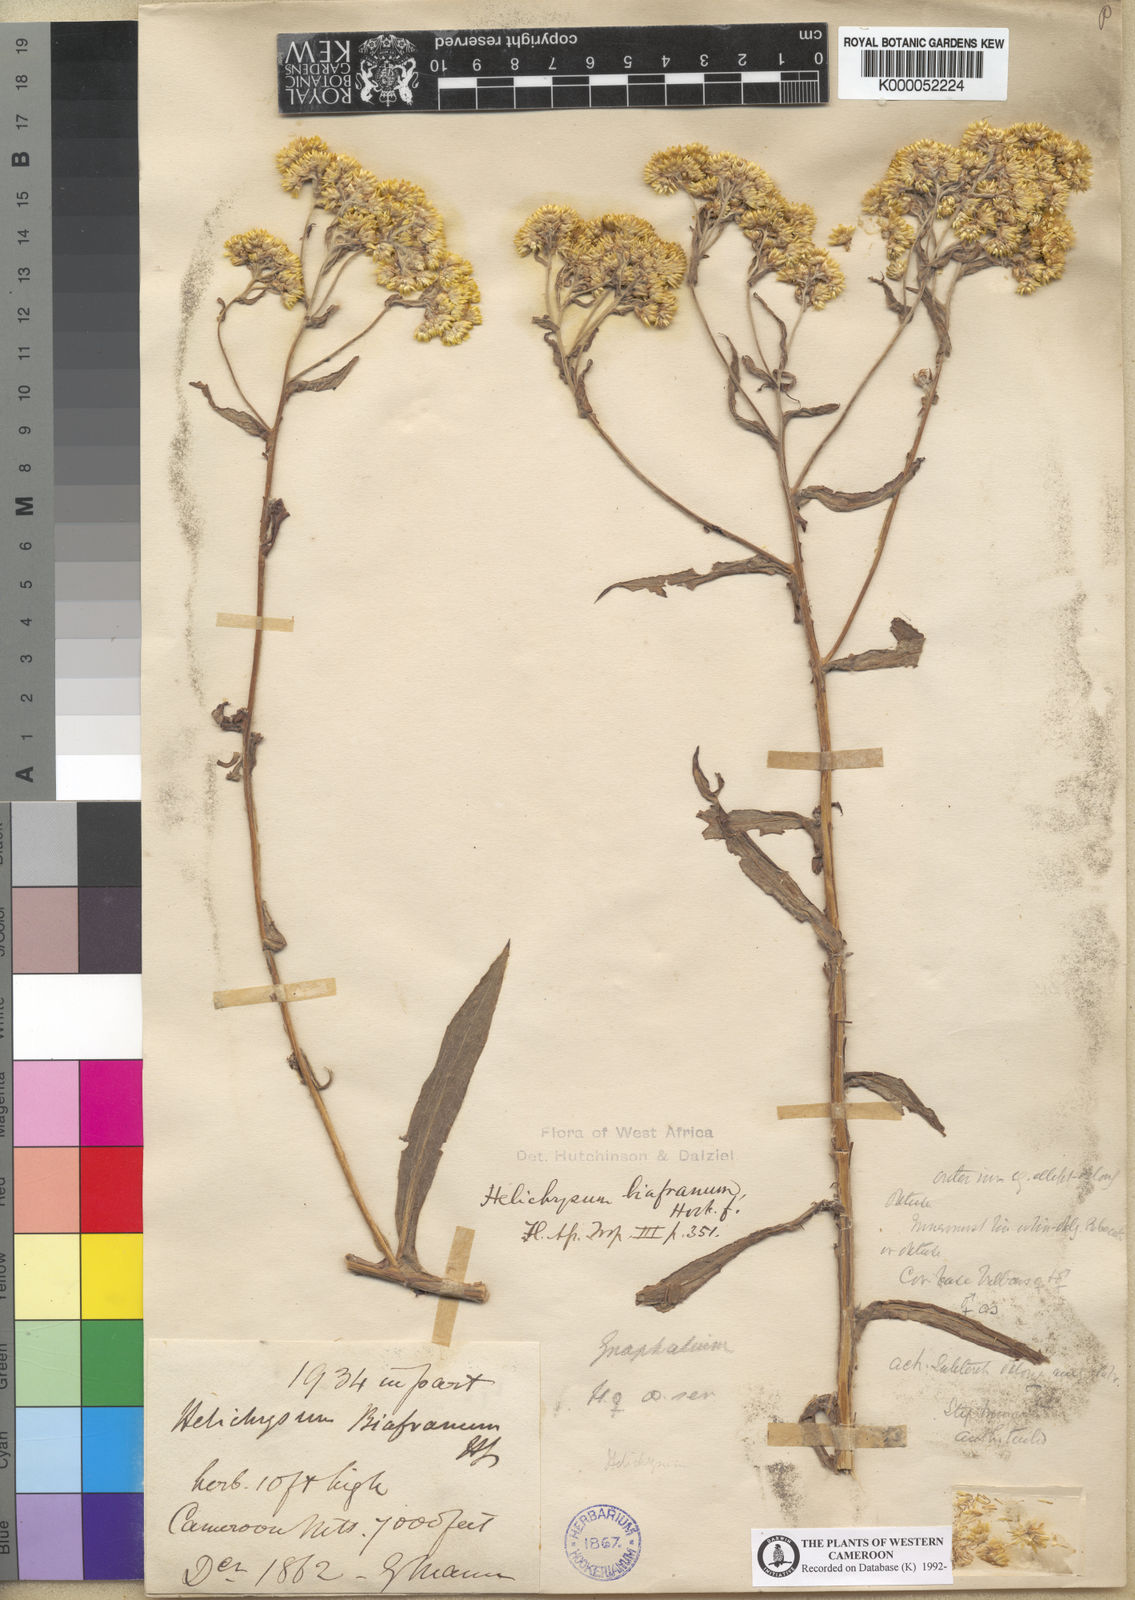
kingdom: Plantae
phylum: Tracheophyta
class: Magnoliopsida
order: Asterales
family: Asteraceae
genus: Helichrysum
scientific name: Helichrysum biafranum
